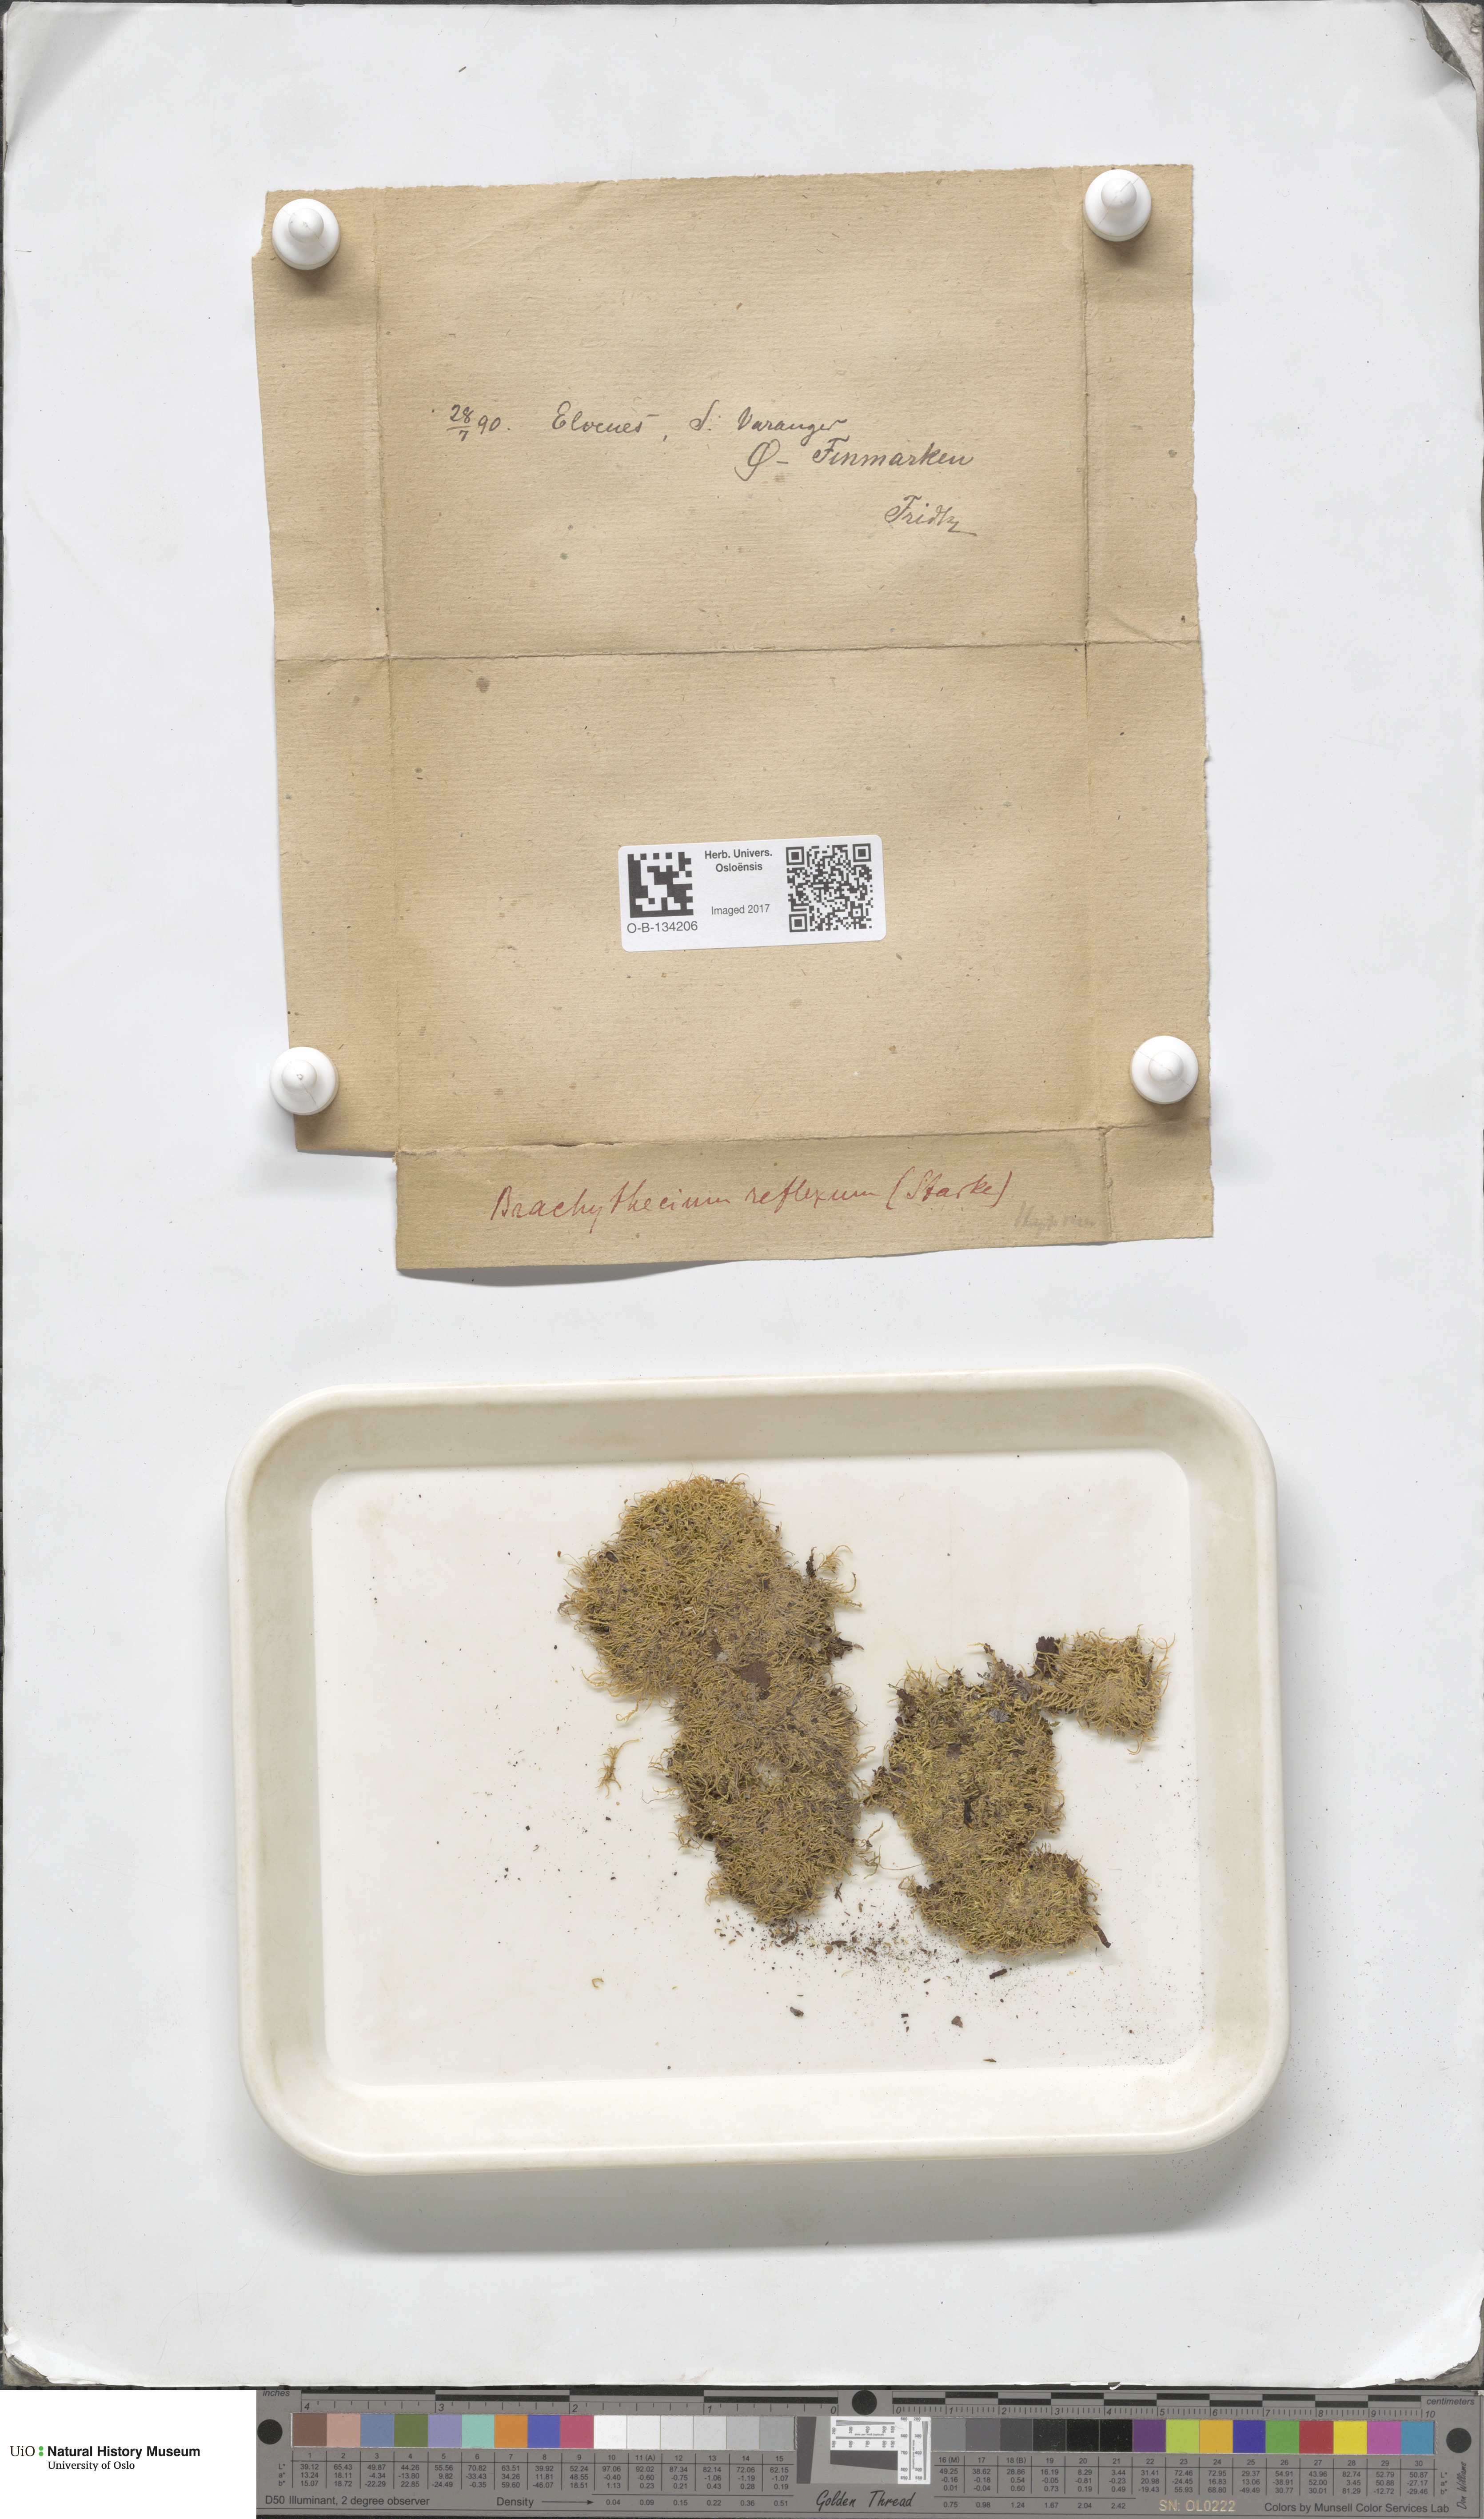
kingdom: Plantae
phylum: Bryophyta
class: Bryopsida
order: Hypnales
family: Brachytheciaceae
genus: Sciuro-hypnum
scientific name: Sciuro-hypnum reflexum
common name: Reflexed feather-moss
